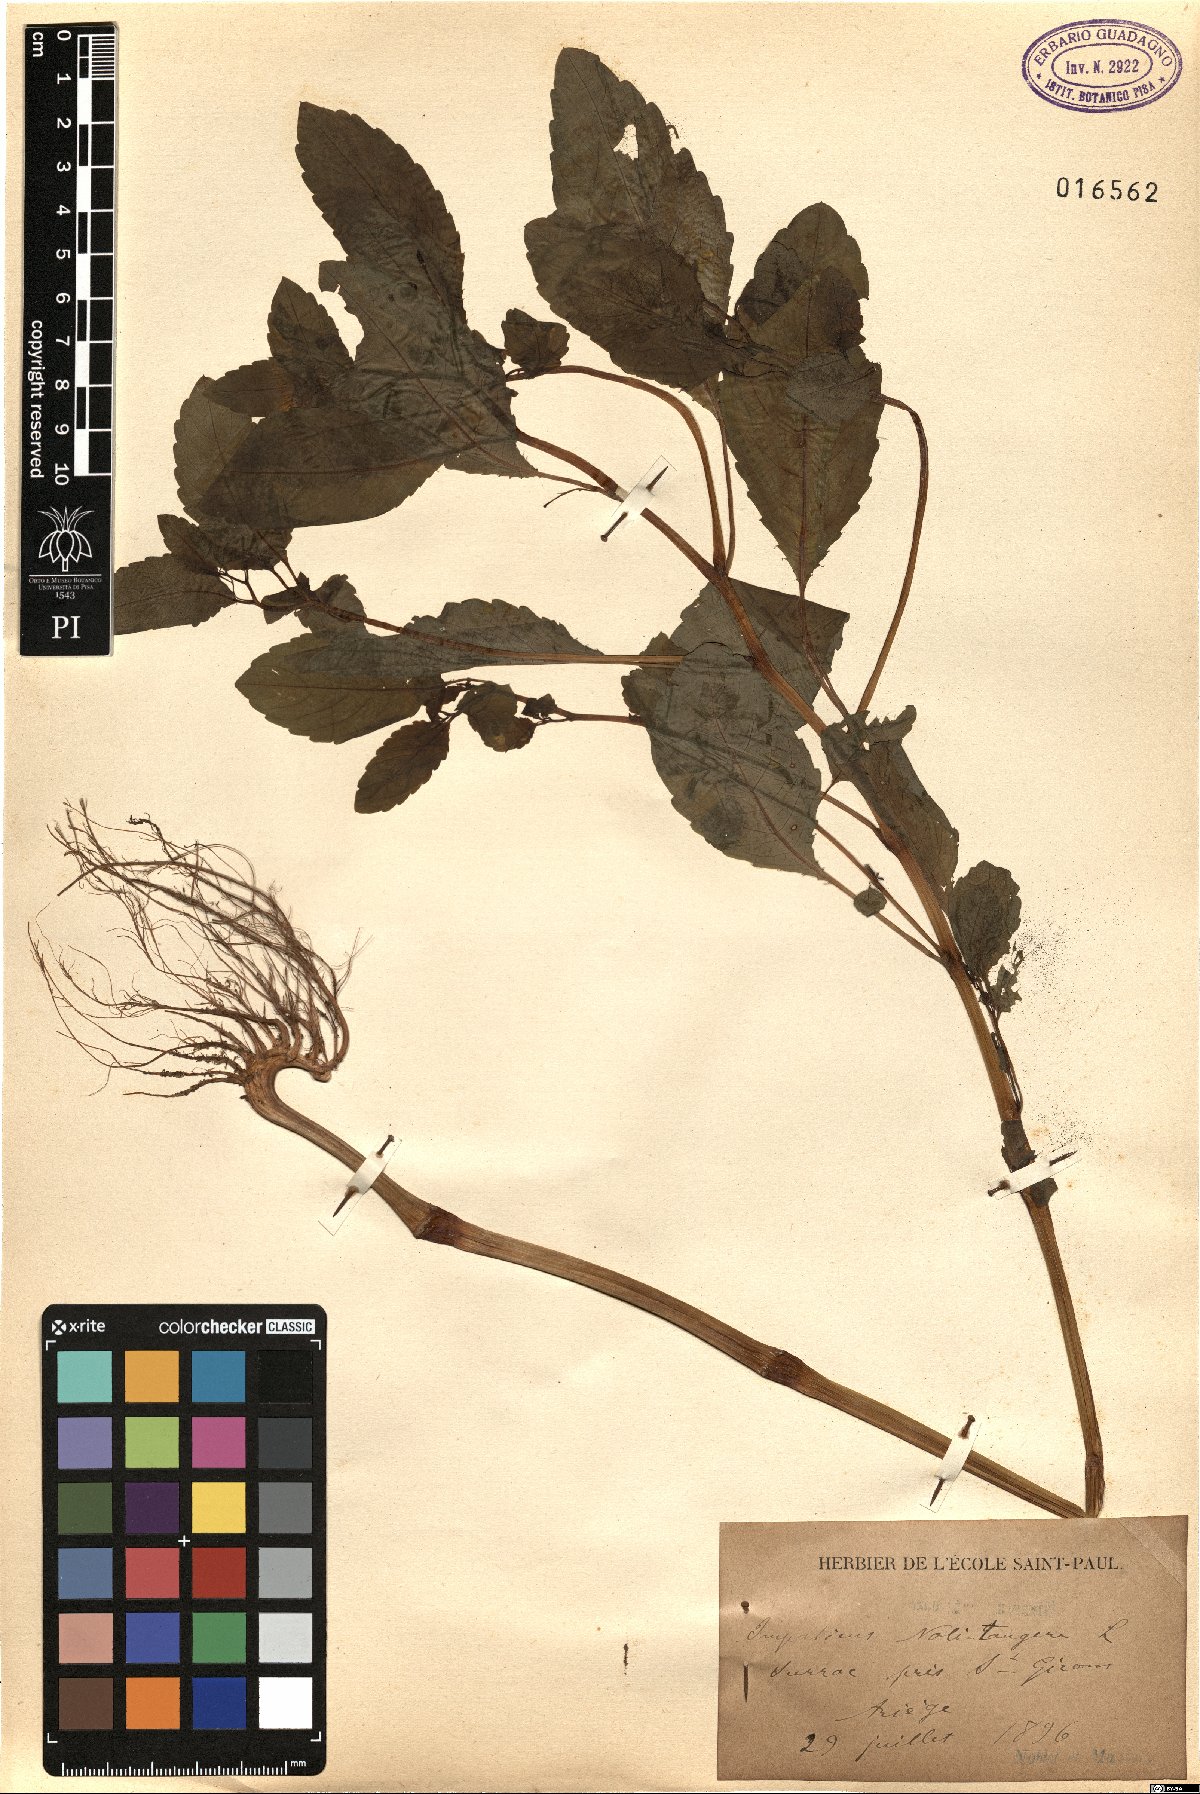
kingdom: Plantae
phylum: Tracheophyta
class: Magnoliopsida
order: Ericales
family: Balsaminaceae
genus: Impatiens
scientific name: Impatiens noli-tangere
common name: Touch-me-not balsam
